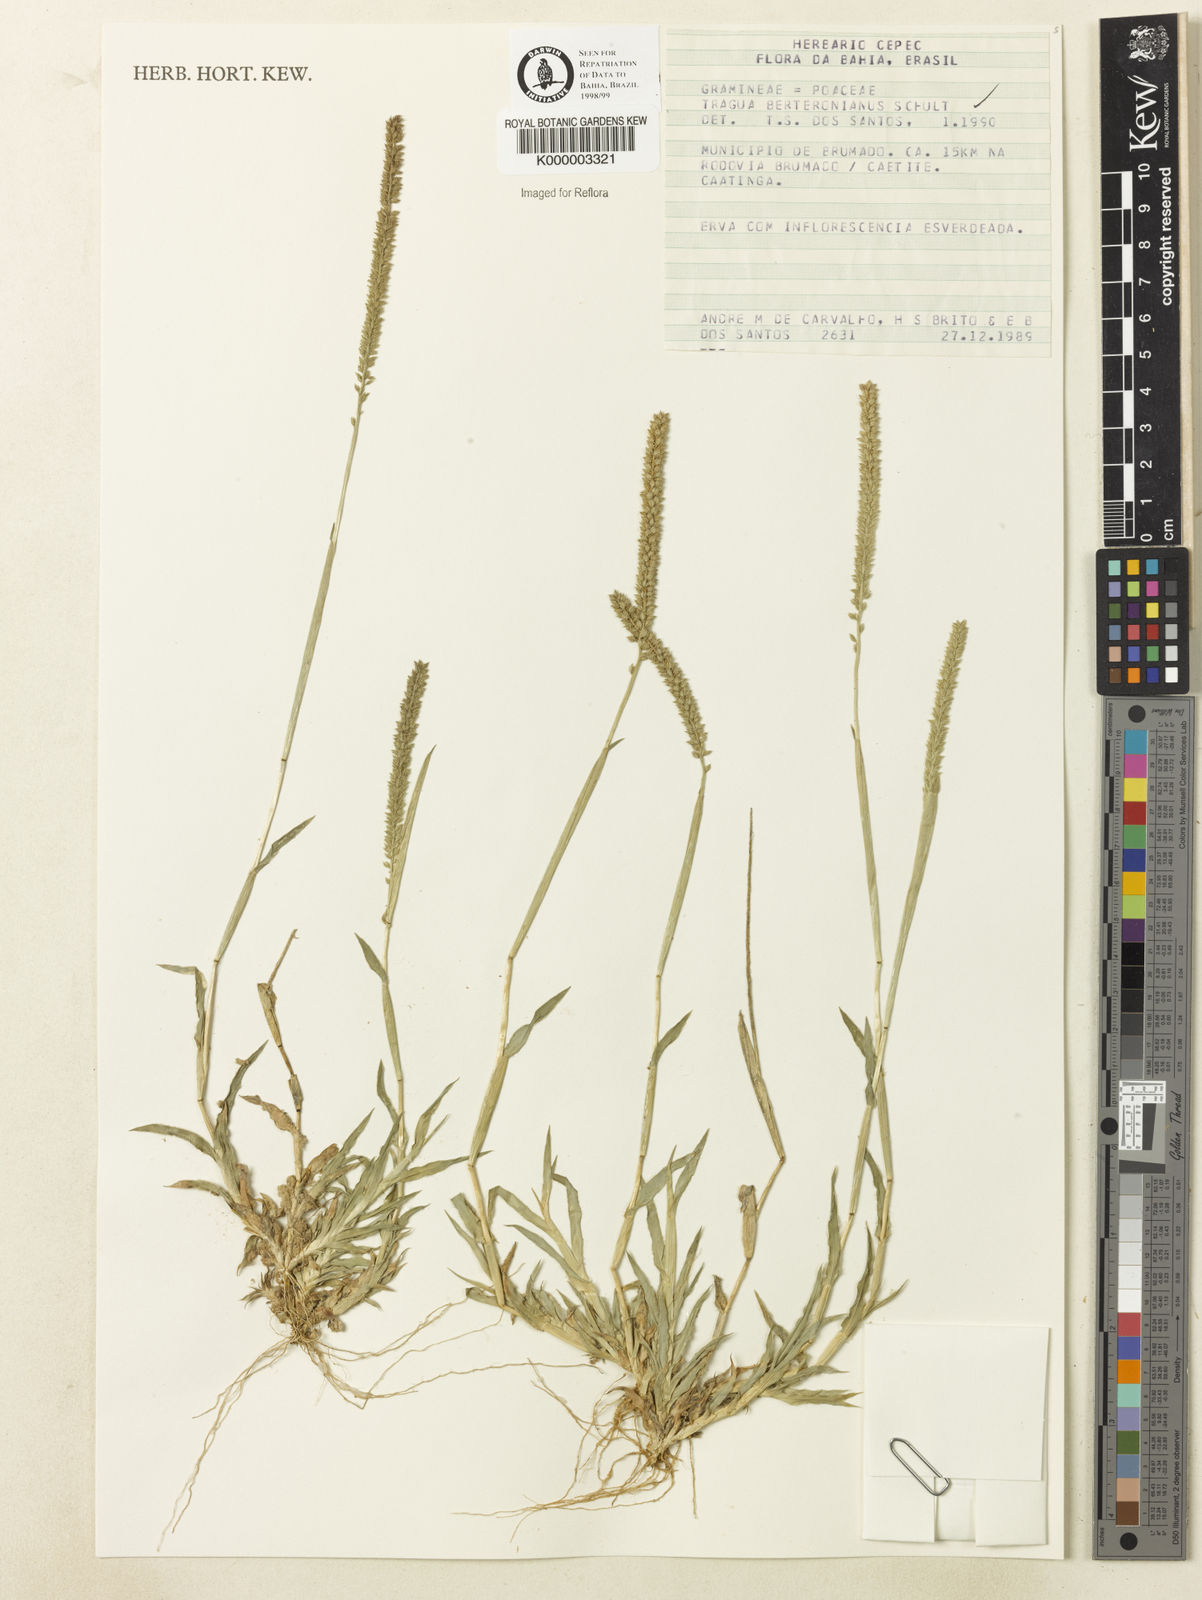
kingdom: Plantae
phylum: Tracheophyta
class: Liliopsida
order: Poales
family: Poaceae
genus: Tragus
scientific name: Tragus berteronianus
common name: African bur-grass
